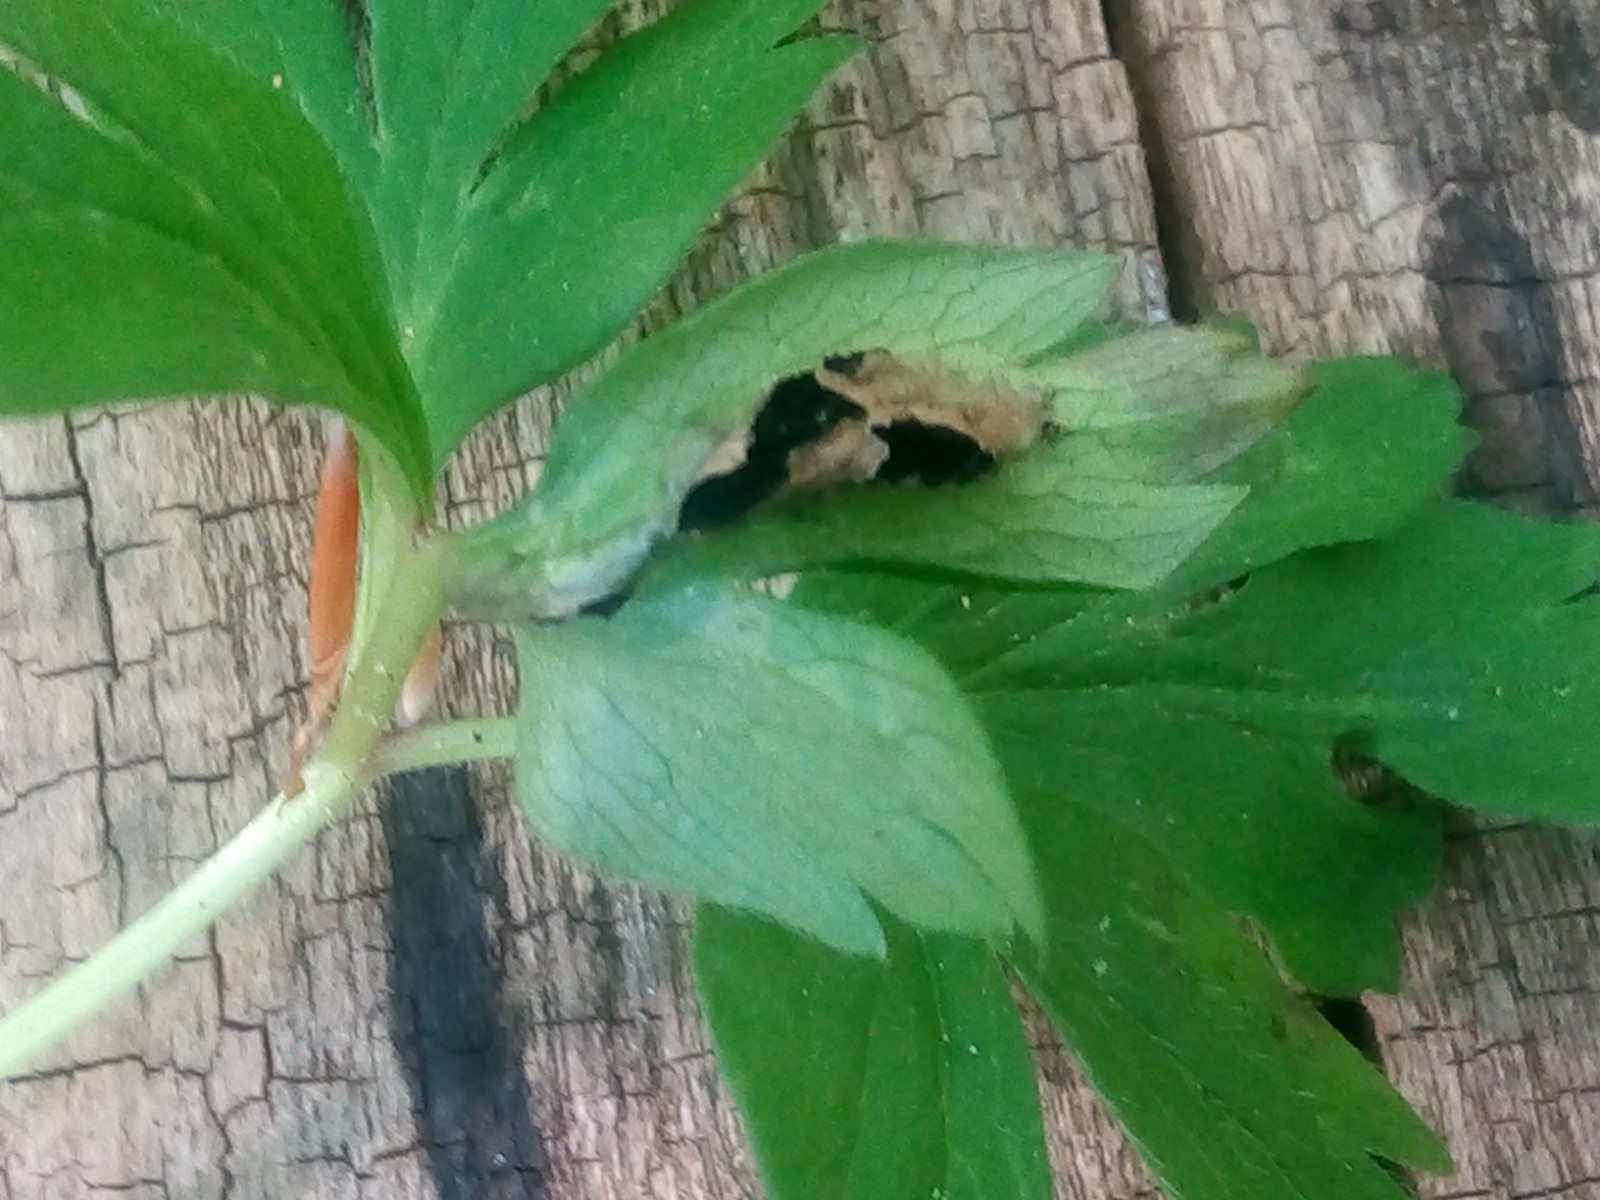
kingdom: Fungi
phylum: Basidiomycota
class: Ustilaginomycetes
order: Urocystidales
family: Urocystidaceae
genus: Urocystis
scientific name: Urocystis anemones
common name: anemone-brand
